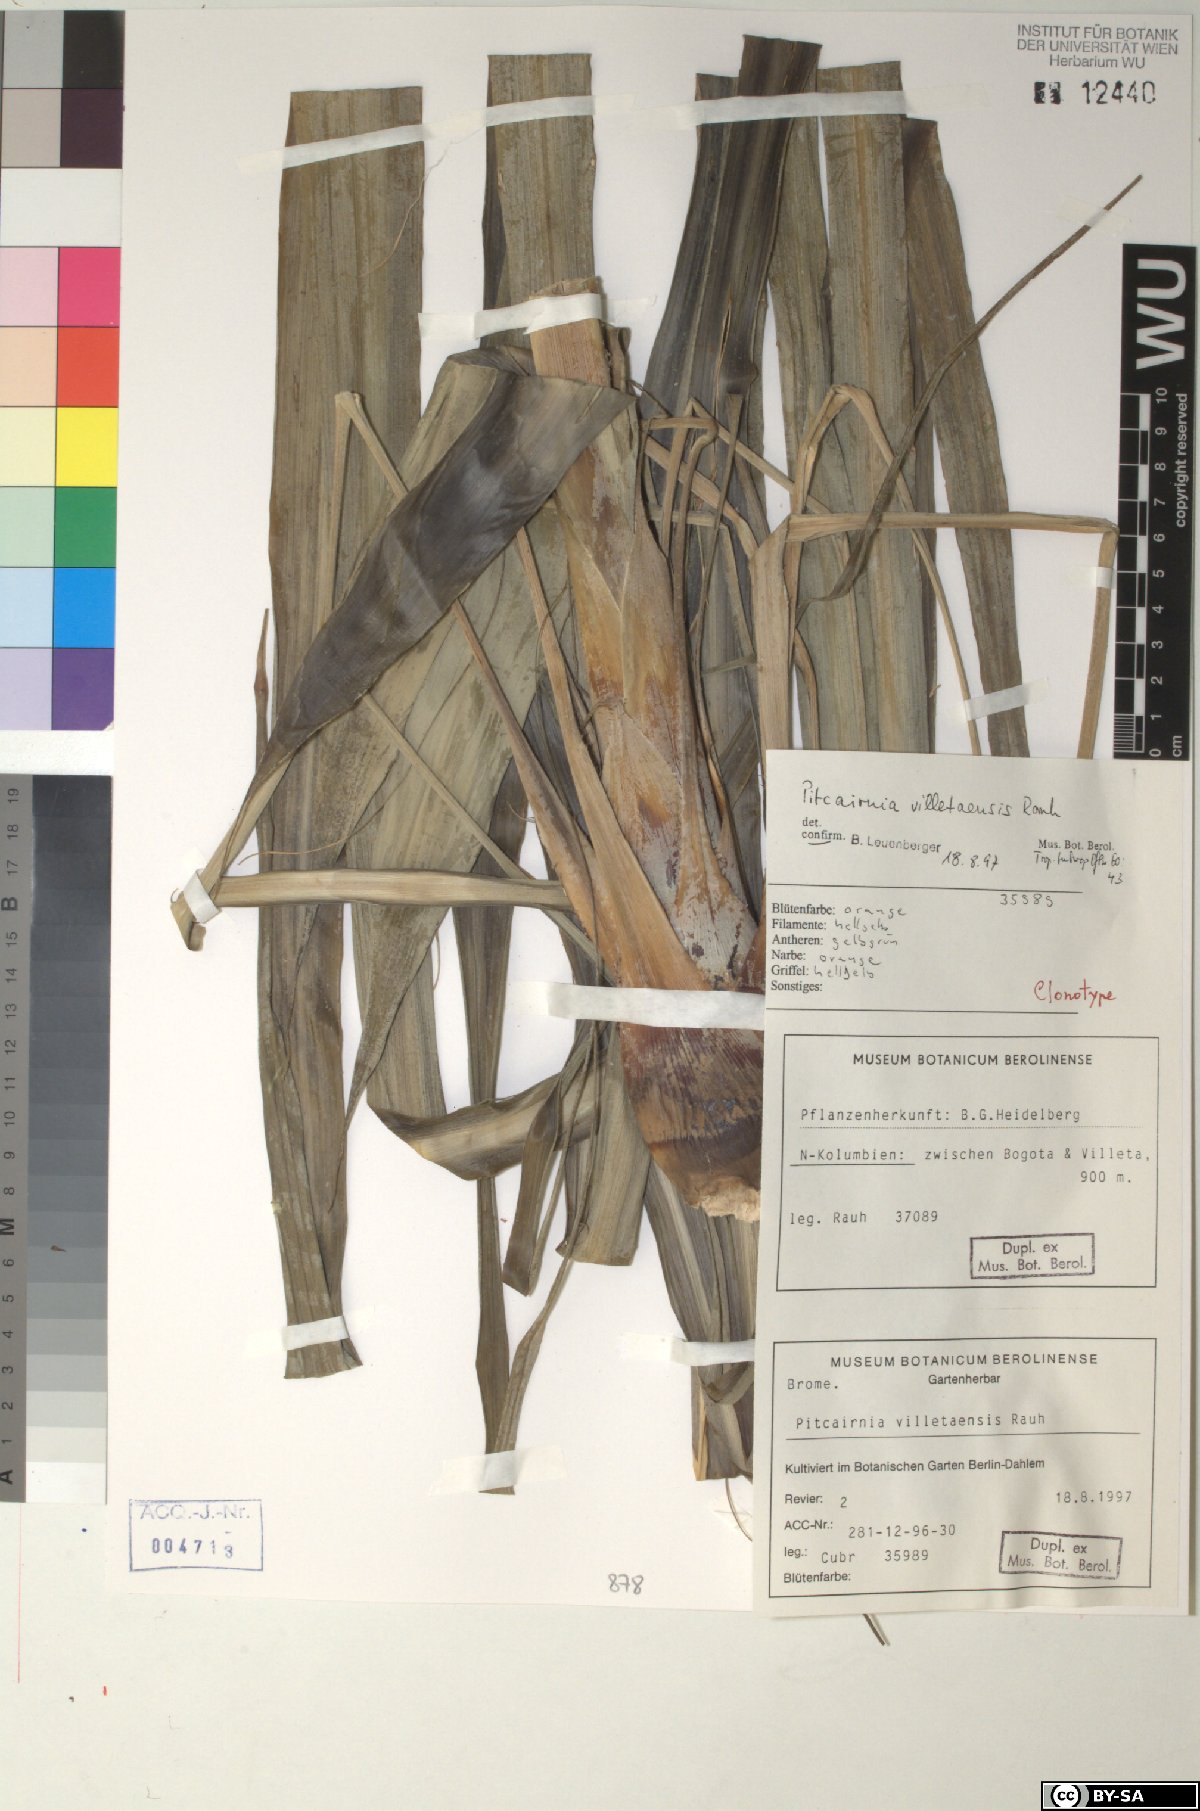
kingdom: Plantae
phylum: Tracheophyta
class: Liliopsida
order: Poales
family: Bromeliaceae
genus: Pitcairnia
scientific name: Pitcairnia villetaensis
